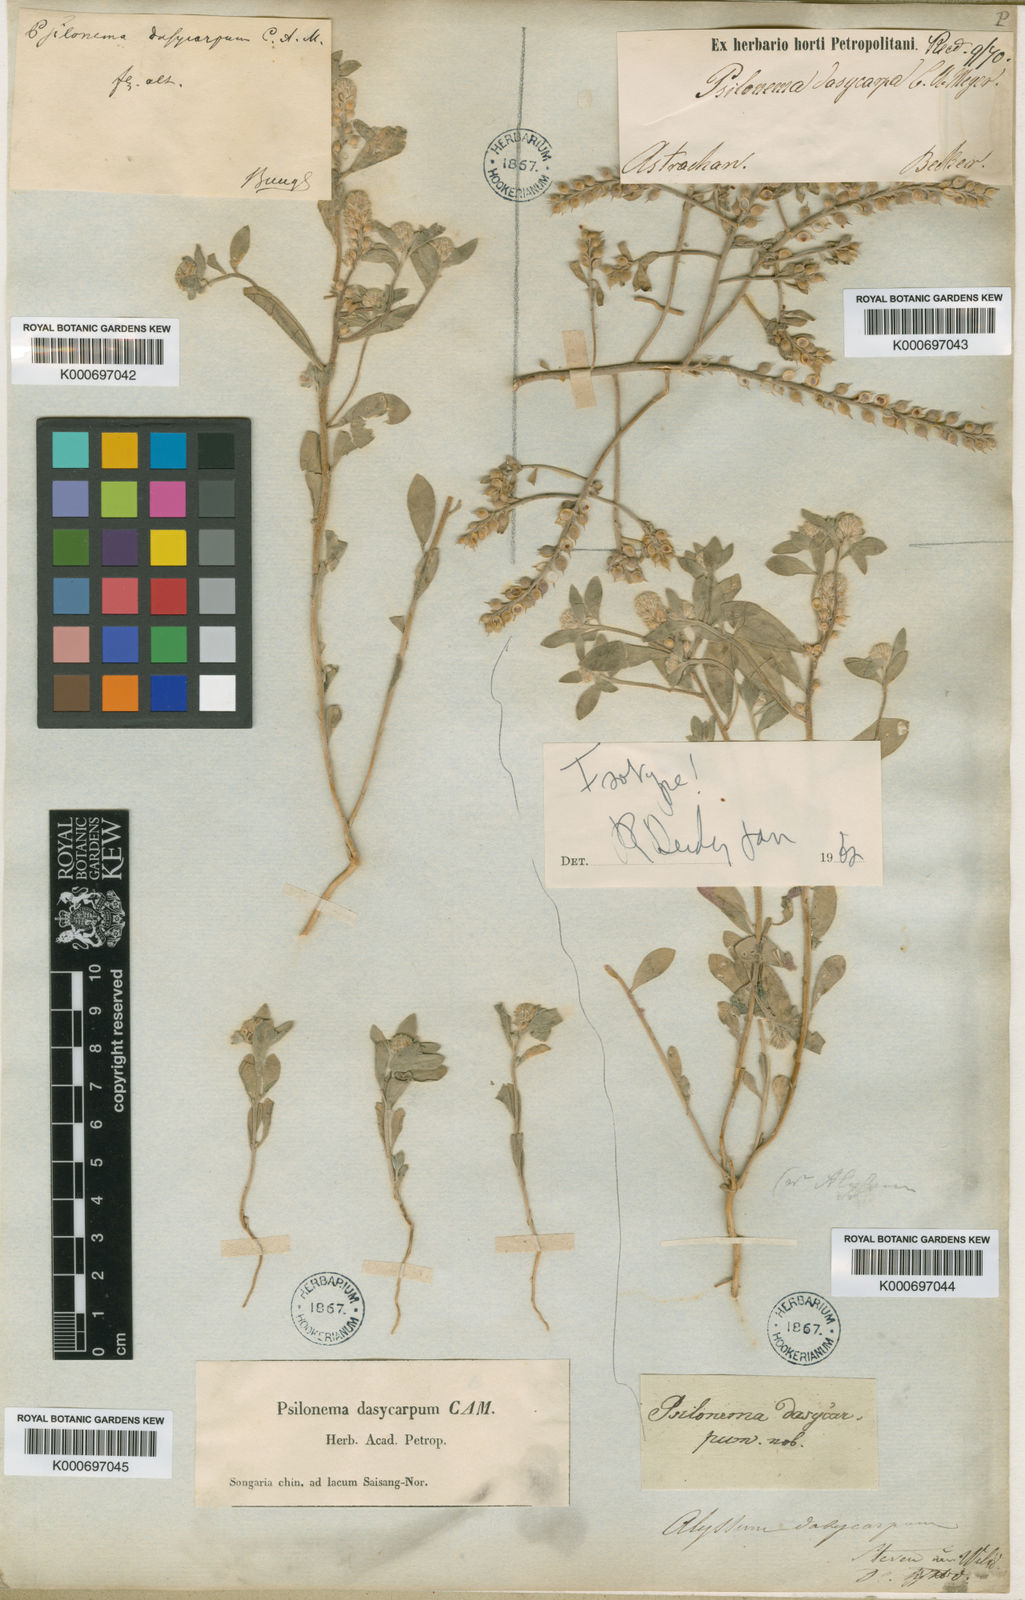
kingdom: Plantae
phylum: Tracheophyta
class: Magnoliopsida
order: Brassicales
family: Brassicaceae
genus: Alyssum
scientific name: Alyssum dasycarpum
